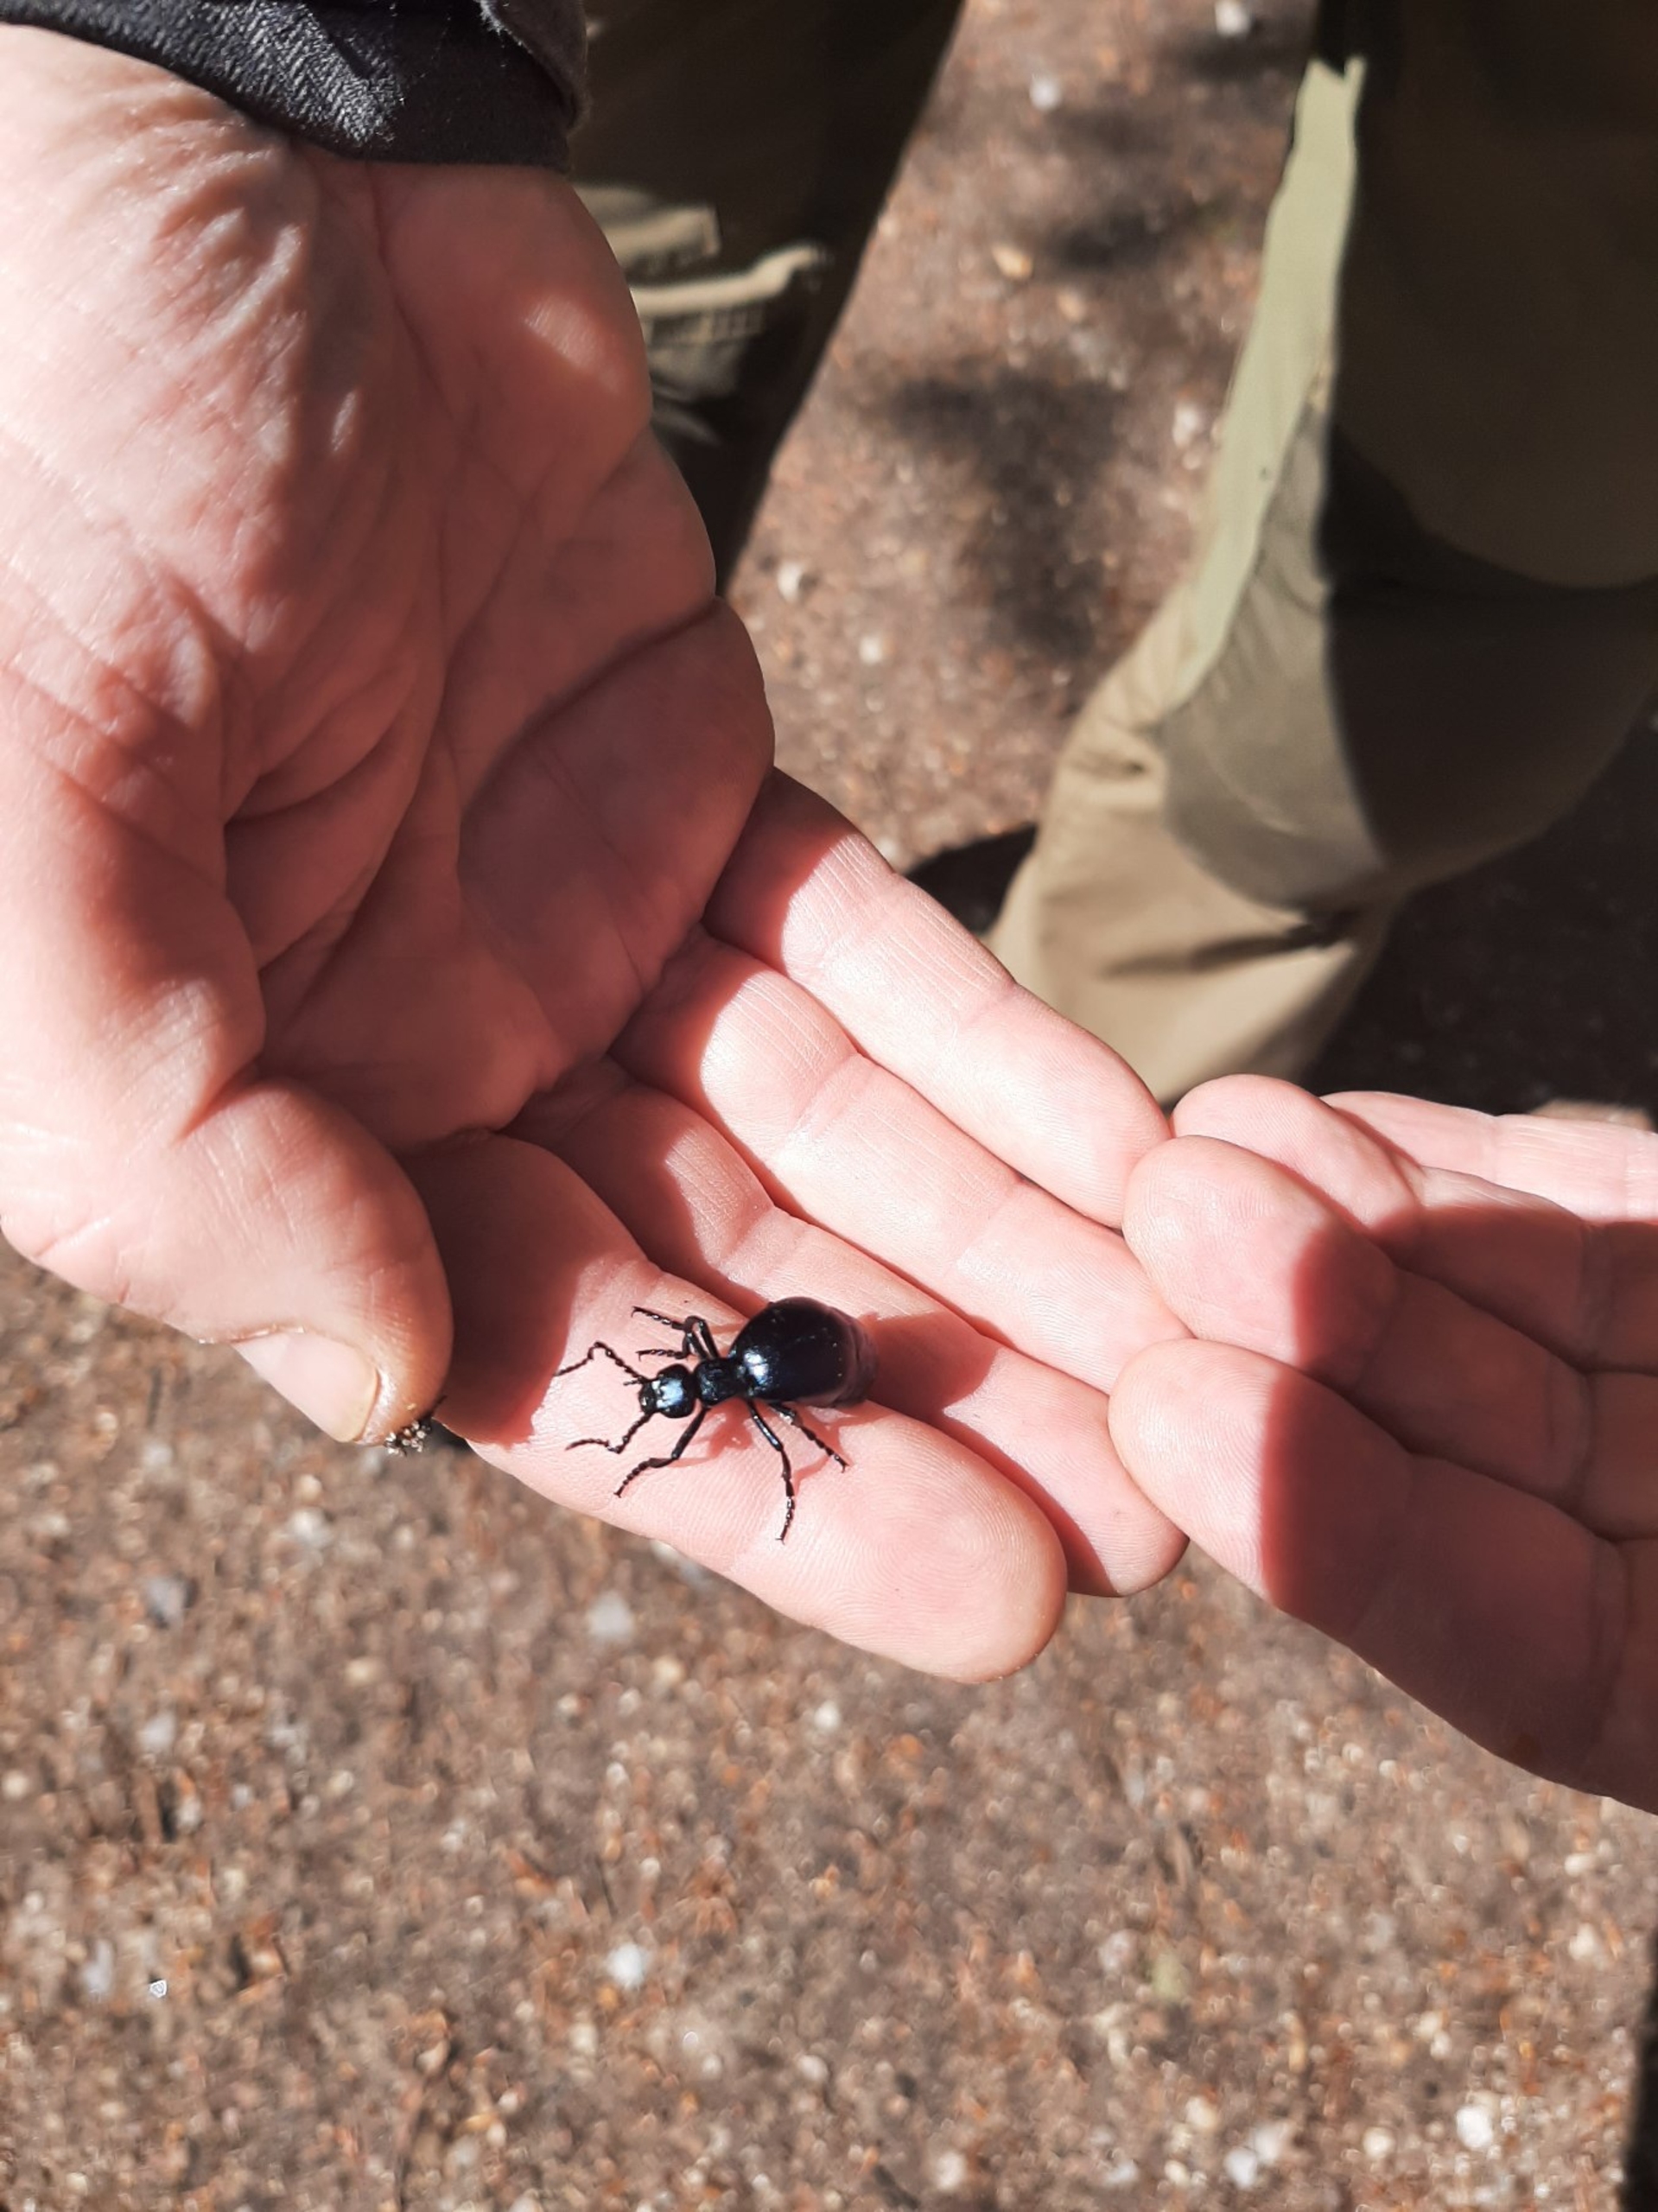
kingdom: Animalia
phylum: Arthropoda
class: Insecta
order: Coleoptera
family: Meloidae
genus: Meloe
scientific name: Meloe violaceus
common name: Blå oliebille
